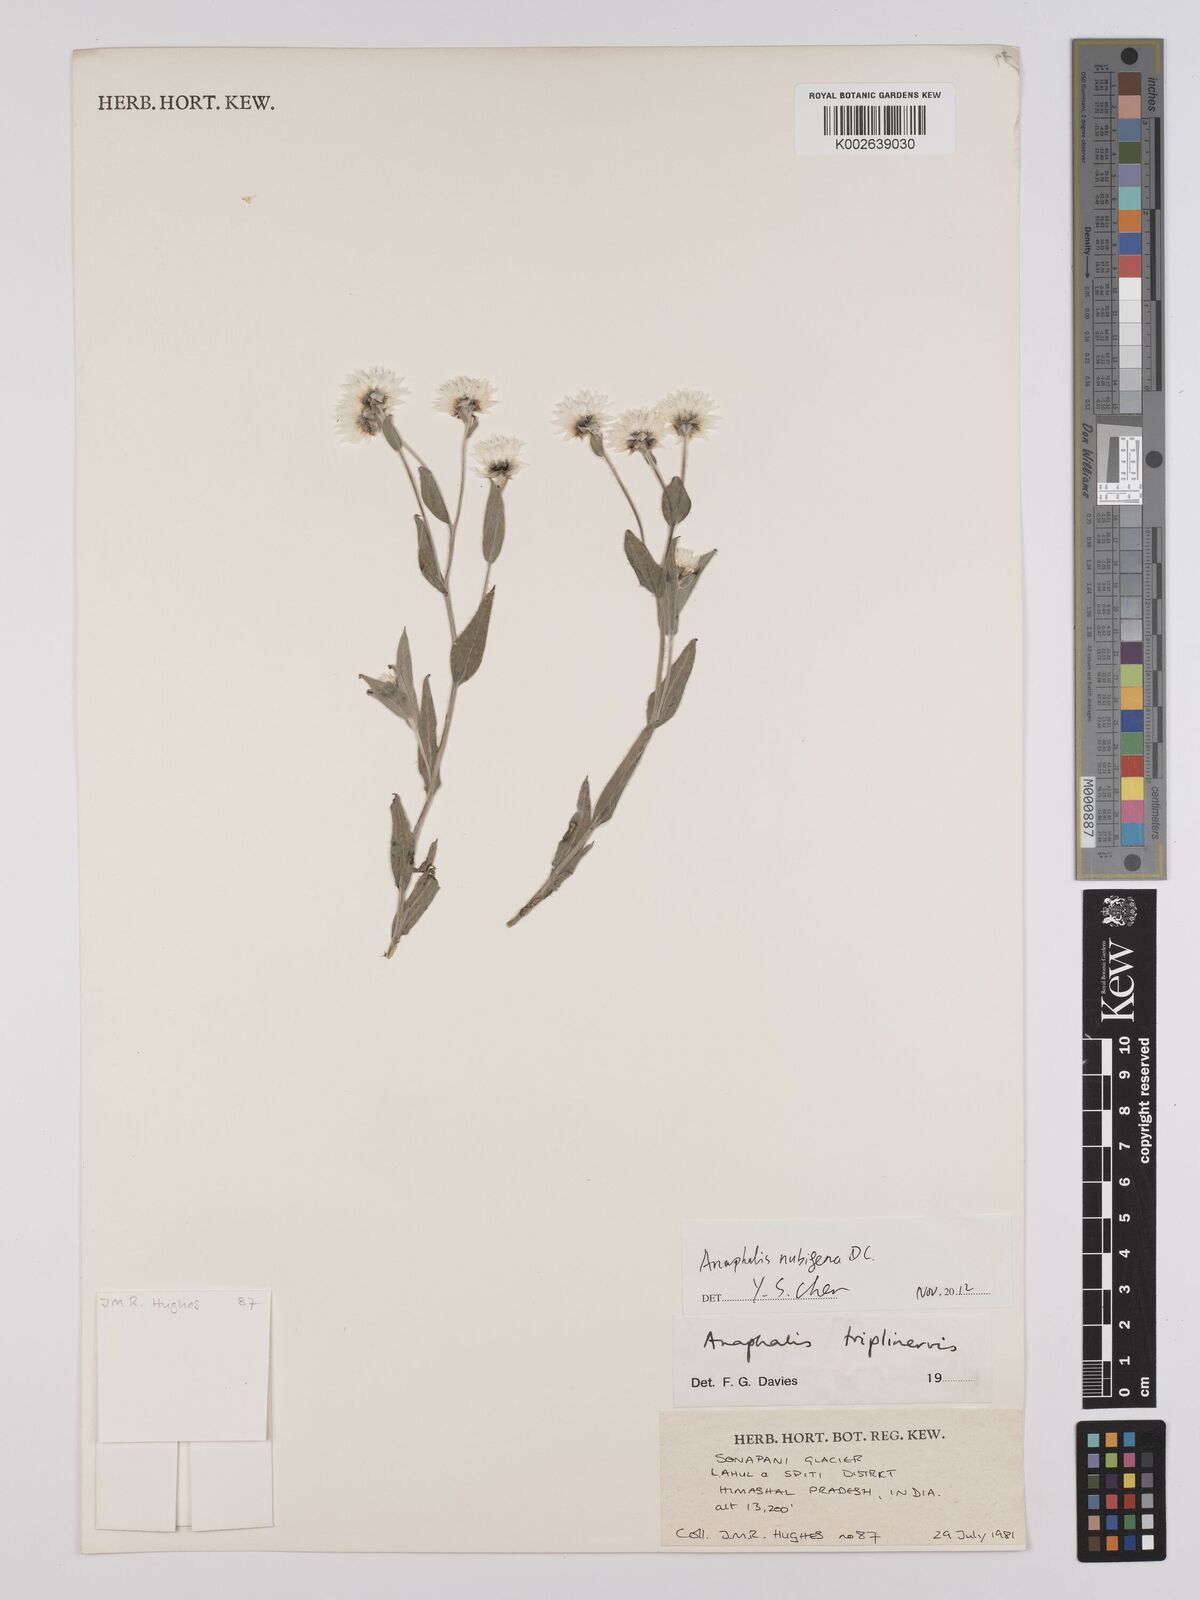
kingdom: Plantae
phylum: Tracheophyta
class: Magnoliopsida
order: Asterales
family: Asteraceae
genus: Anaphalis
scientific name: Anaphalis nepalensis
